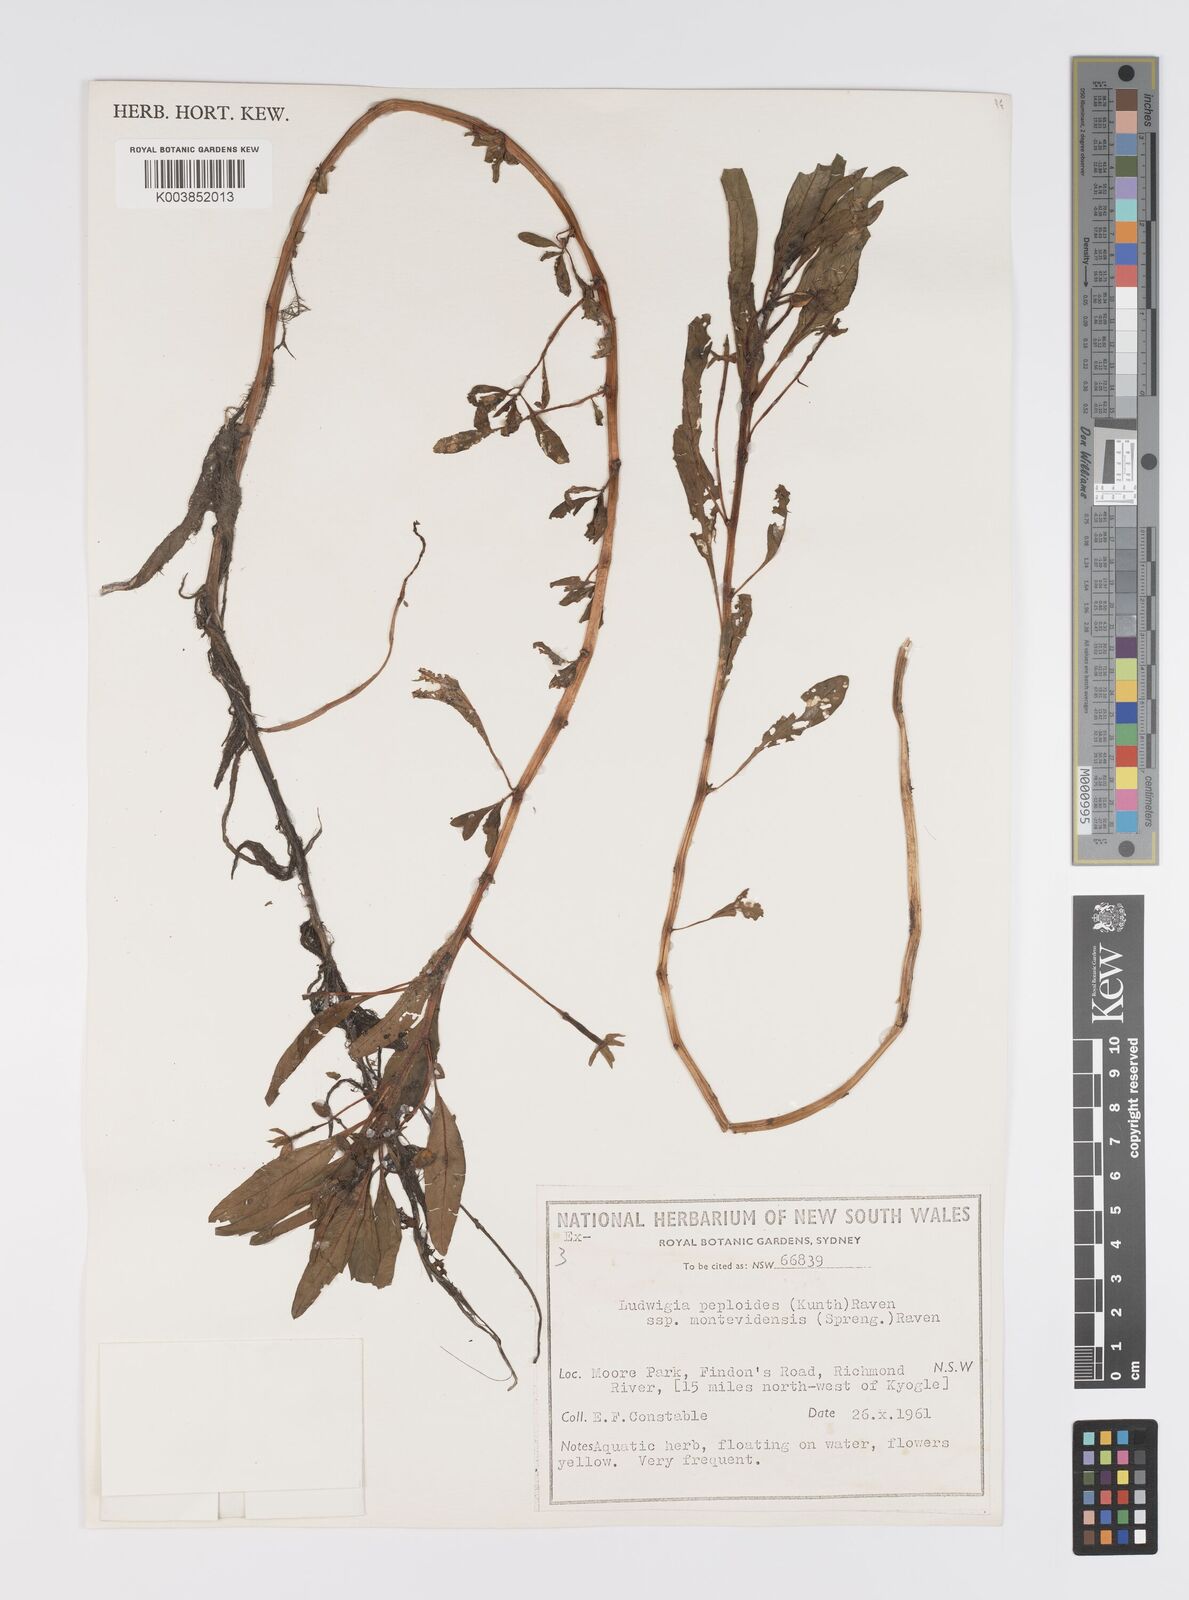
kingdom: Plantae
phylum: Tracheophyta
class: Magnoliopsida
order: Myrtales
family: Onagraceae
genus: Ludwigia
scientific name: Ludwigia peploides
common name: Floating primrose-willow
